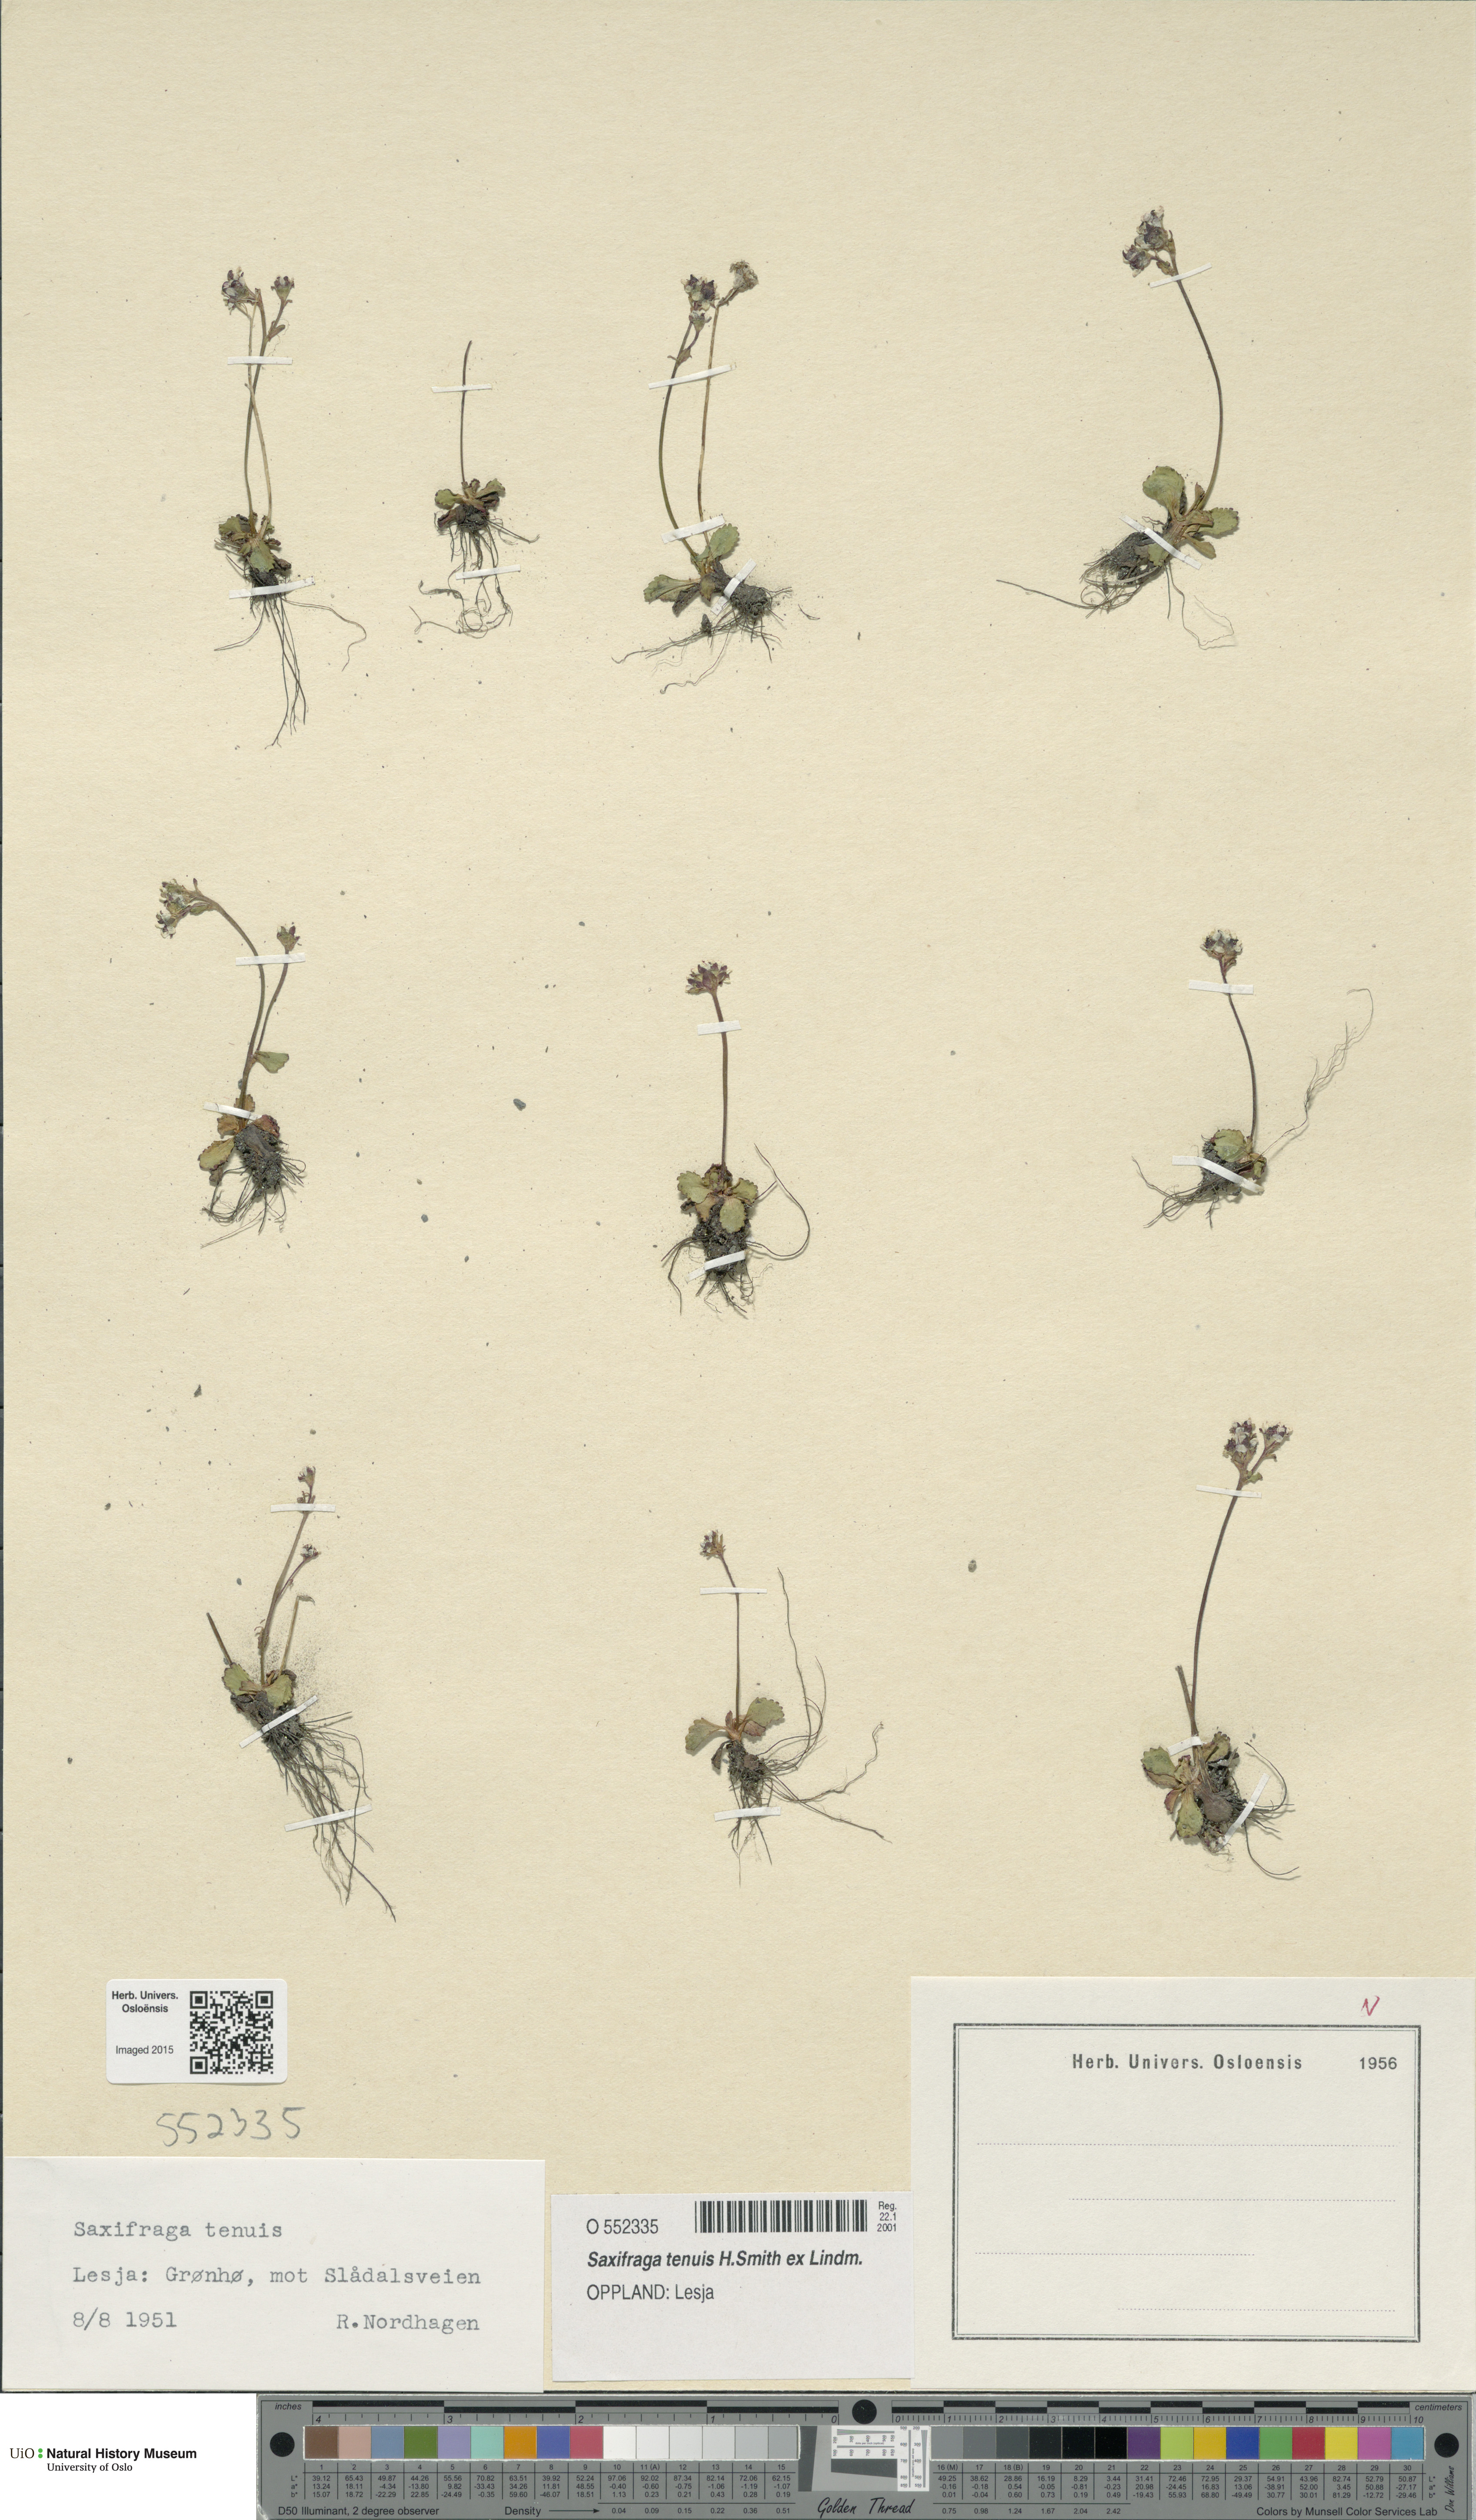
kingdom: Plantae
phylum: Tracheophyta
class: Magnoliopsida
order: Saxifragales
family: Saxifragaceae
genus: Micranthes
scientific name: Micranthes tenuis
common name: Ottertail pass saxifrage
